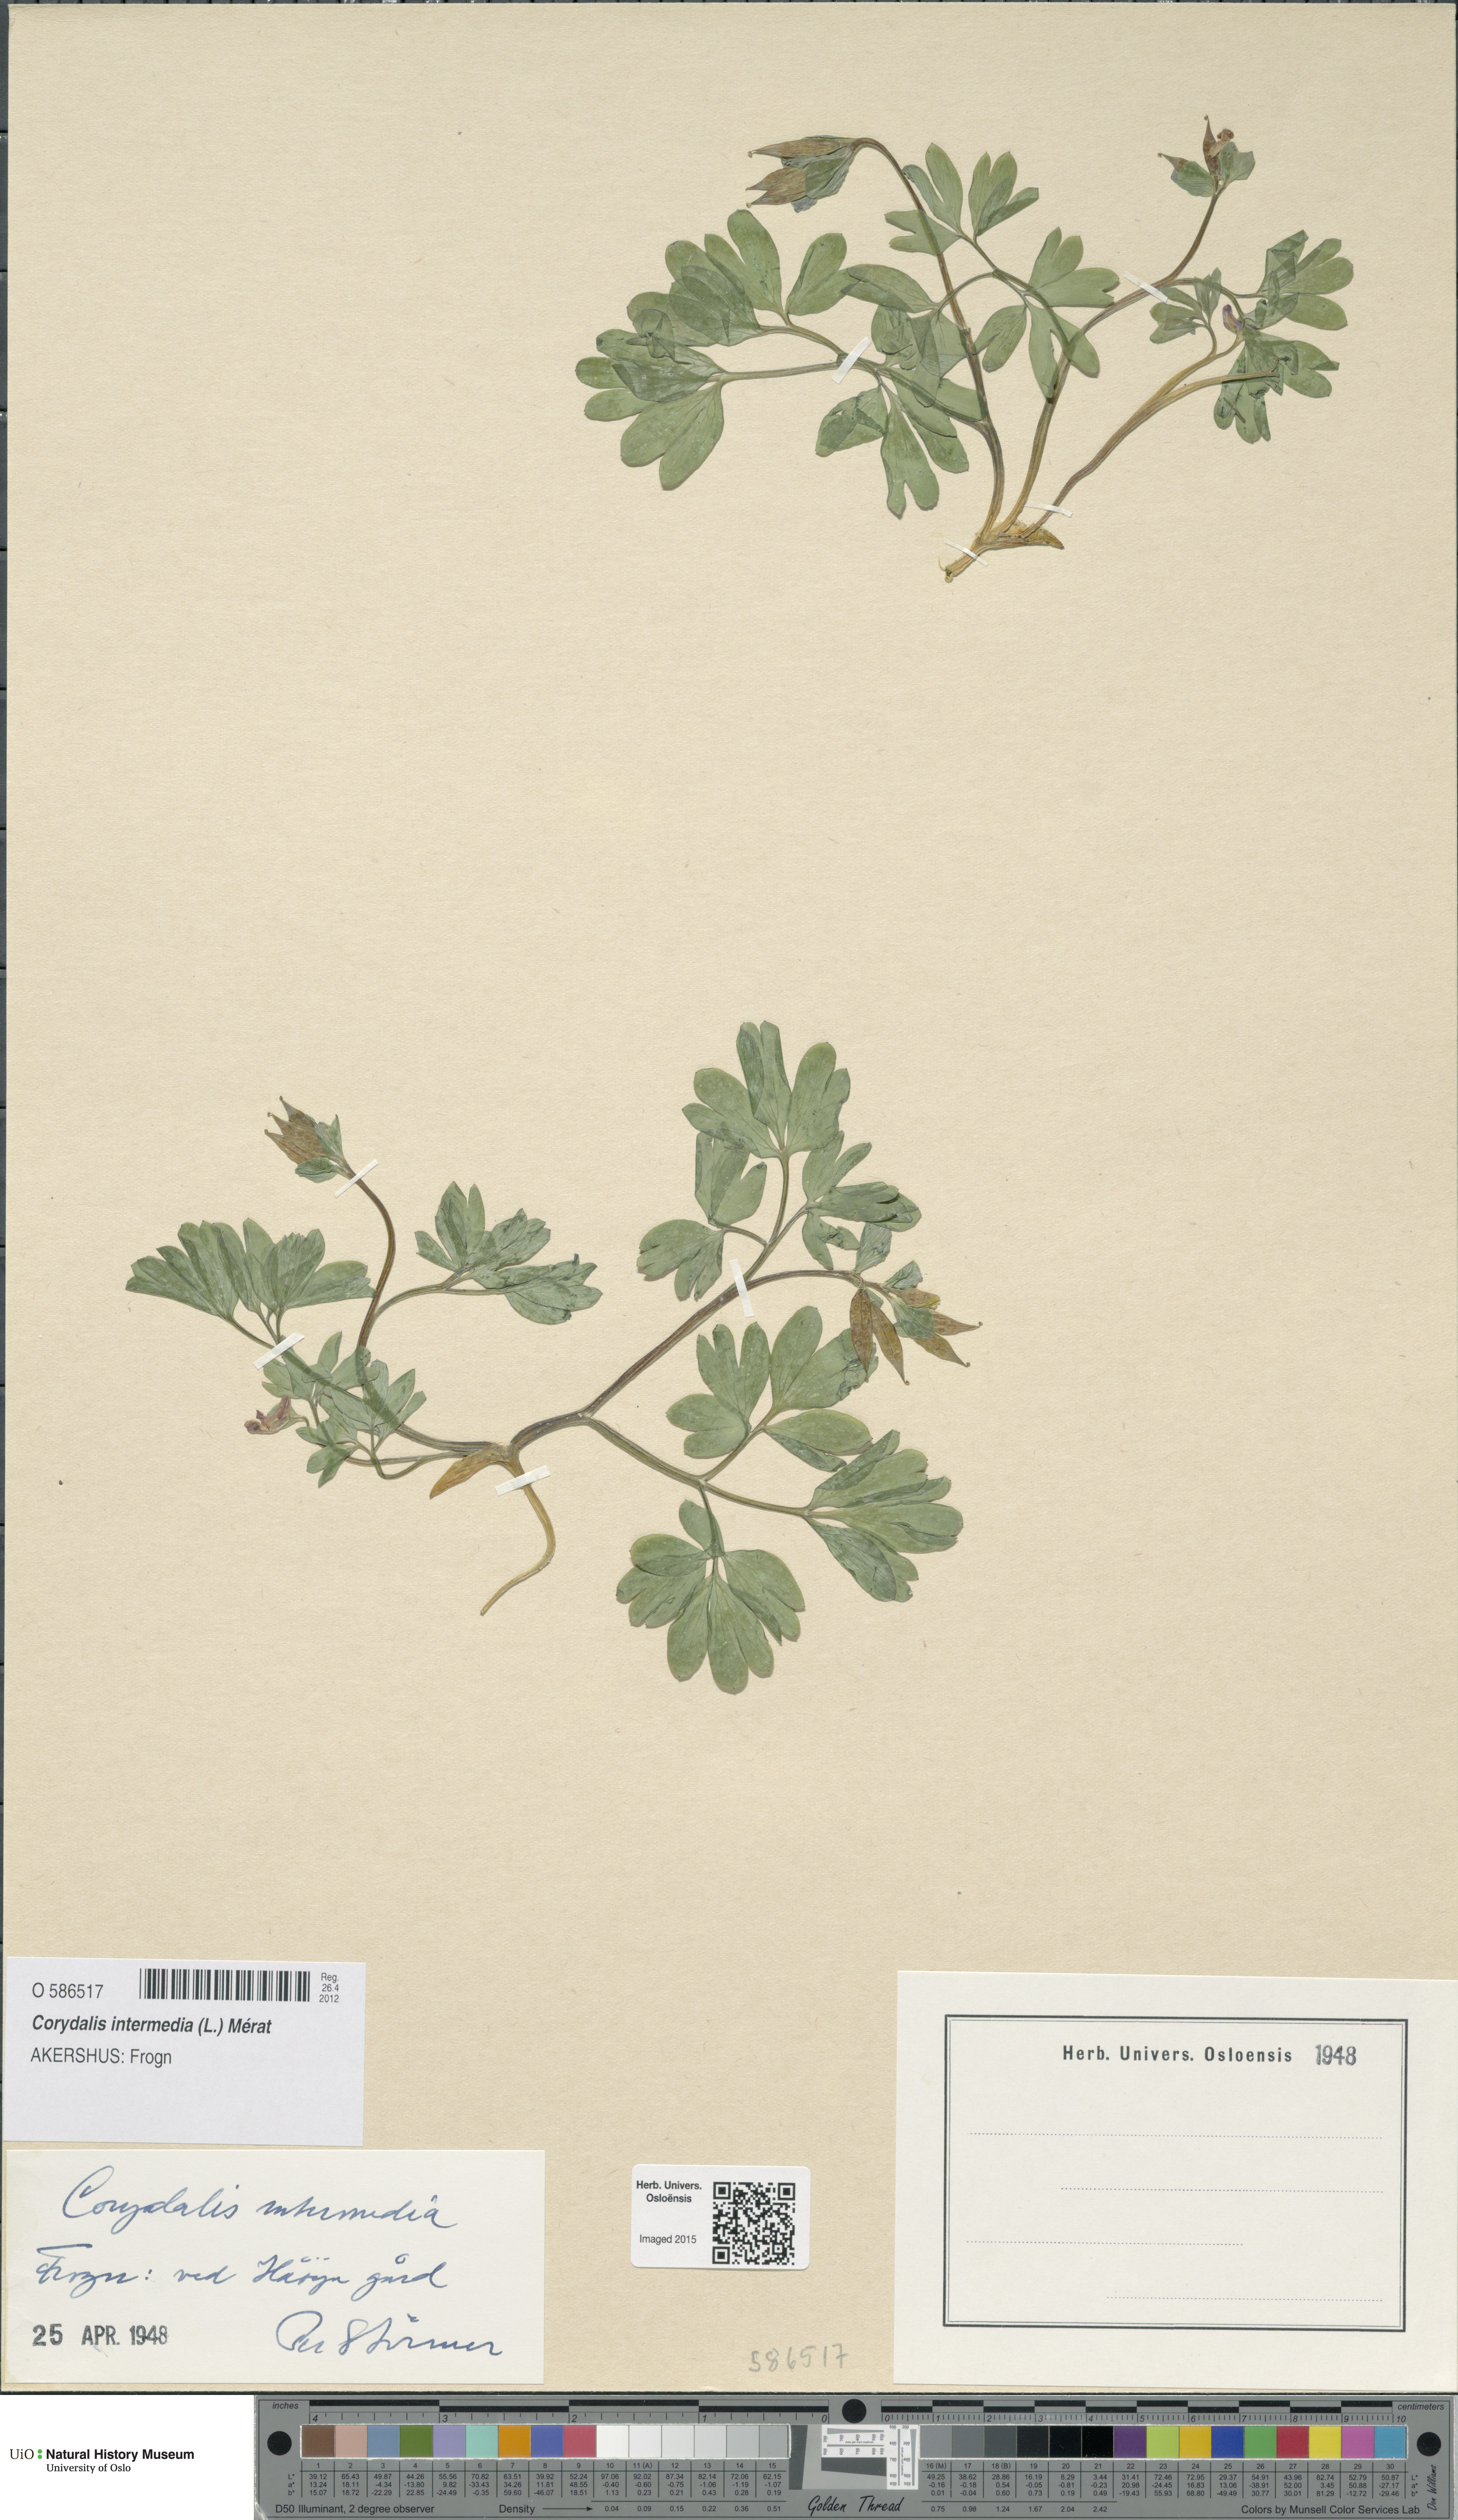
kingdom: Plantae
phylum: Tracheophyta
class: Magnoliopsida
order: Ranunculales
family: Papaveraceae
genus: Corydalis
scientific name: Corydalis intermedia
